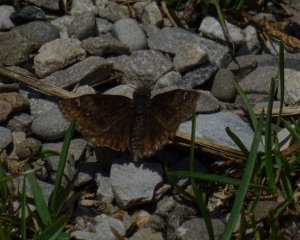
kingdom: Animalia
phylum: Arthropoda
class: Insecta
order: Lepidoptera
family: Hesperiidae
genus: Gesta
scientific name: Gesta
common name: Columbine Duskywing
